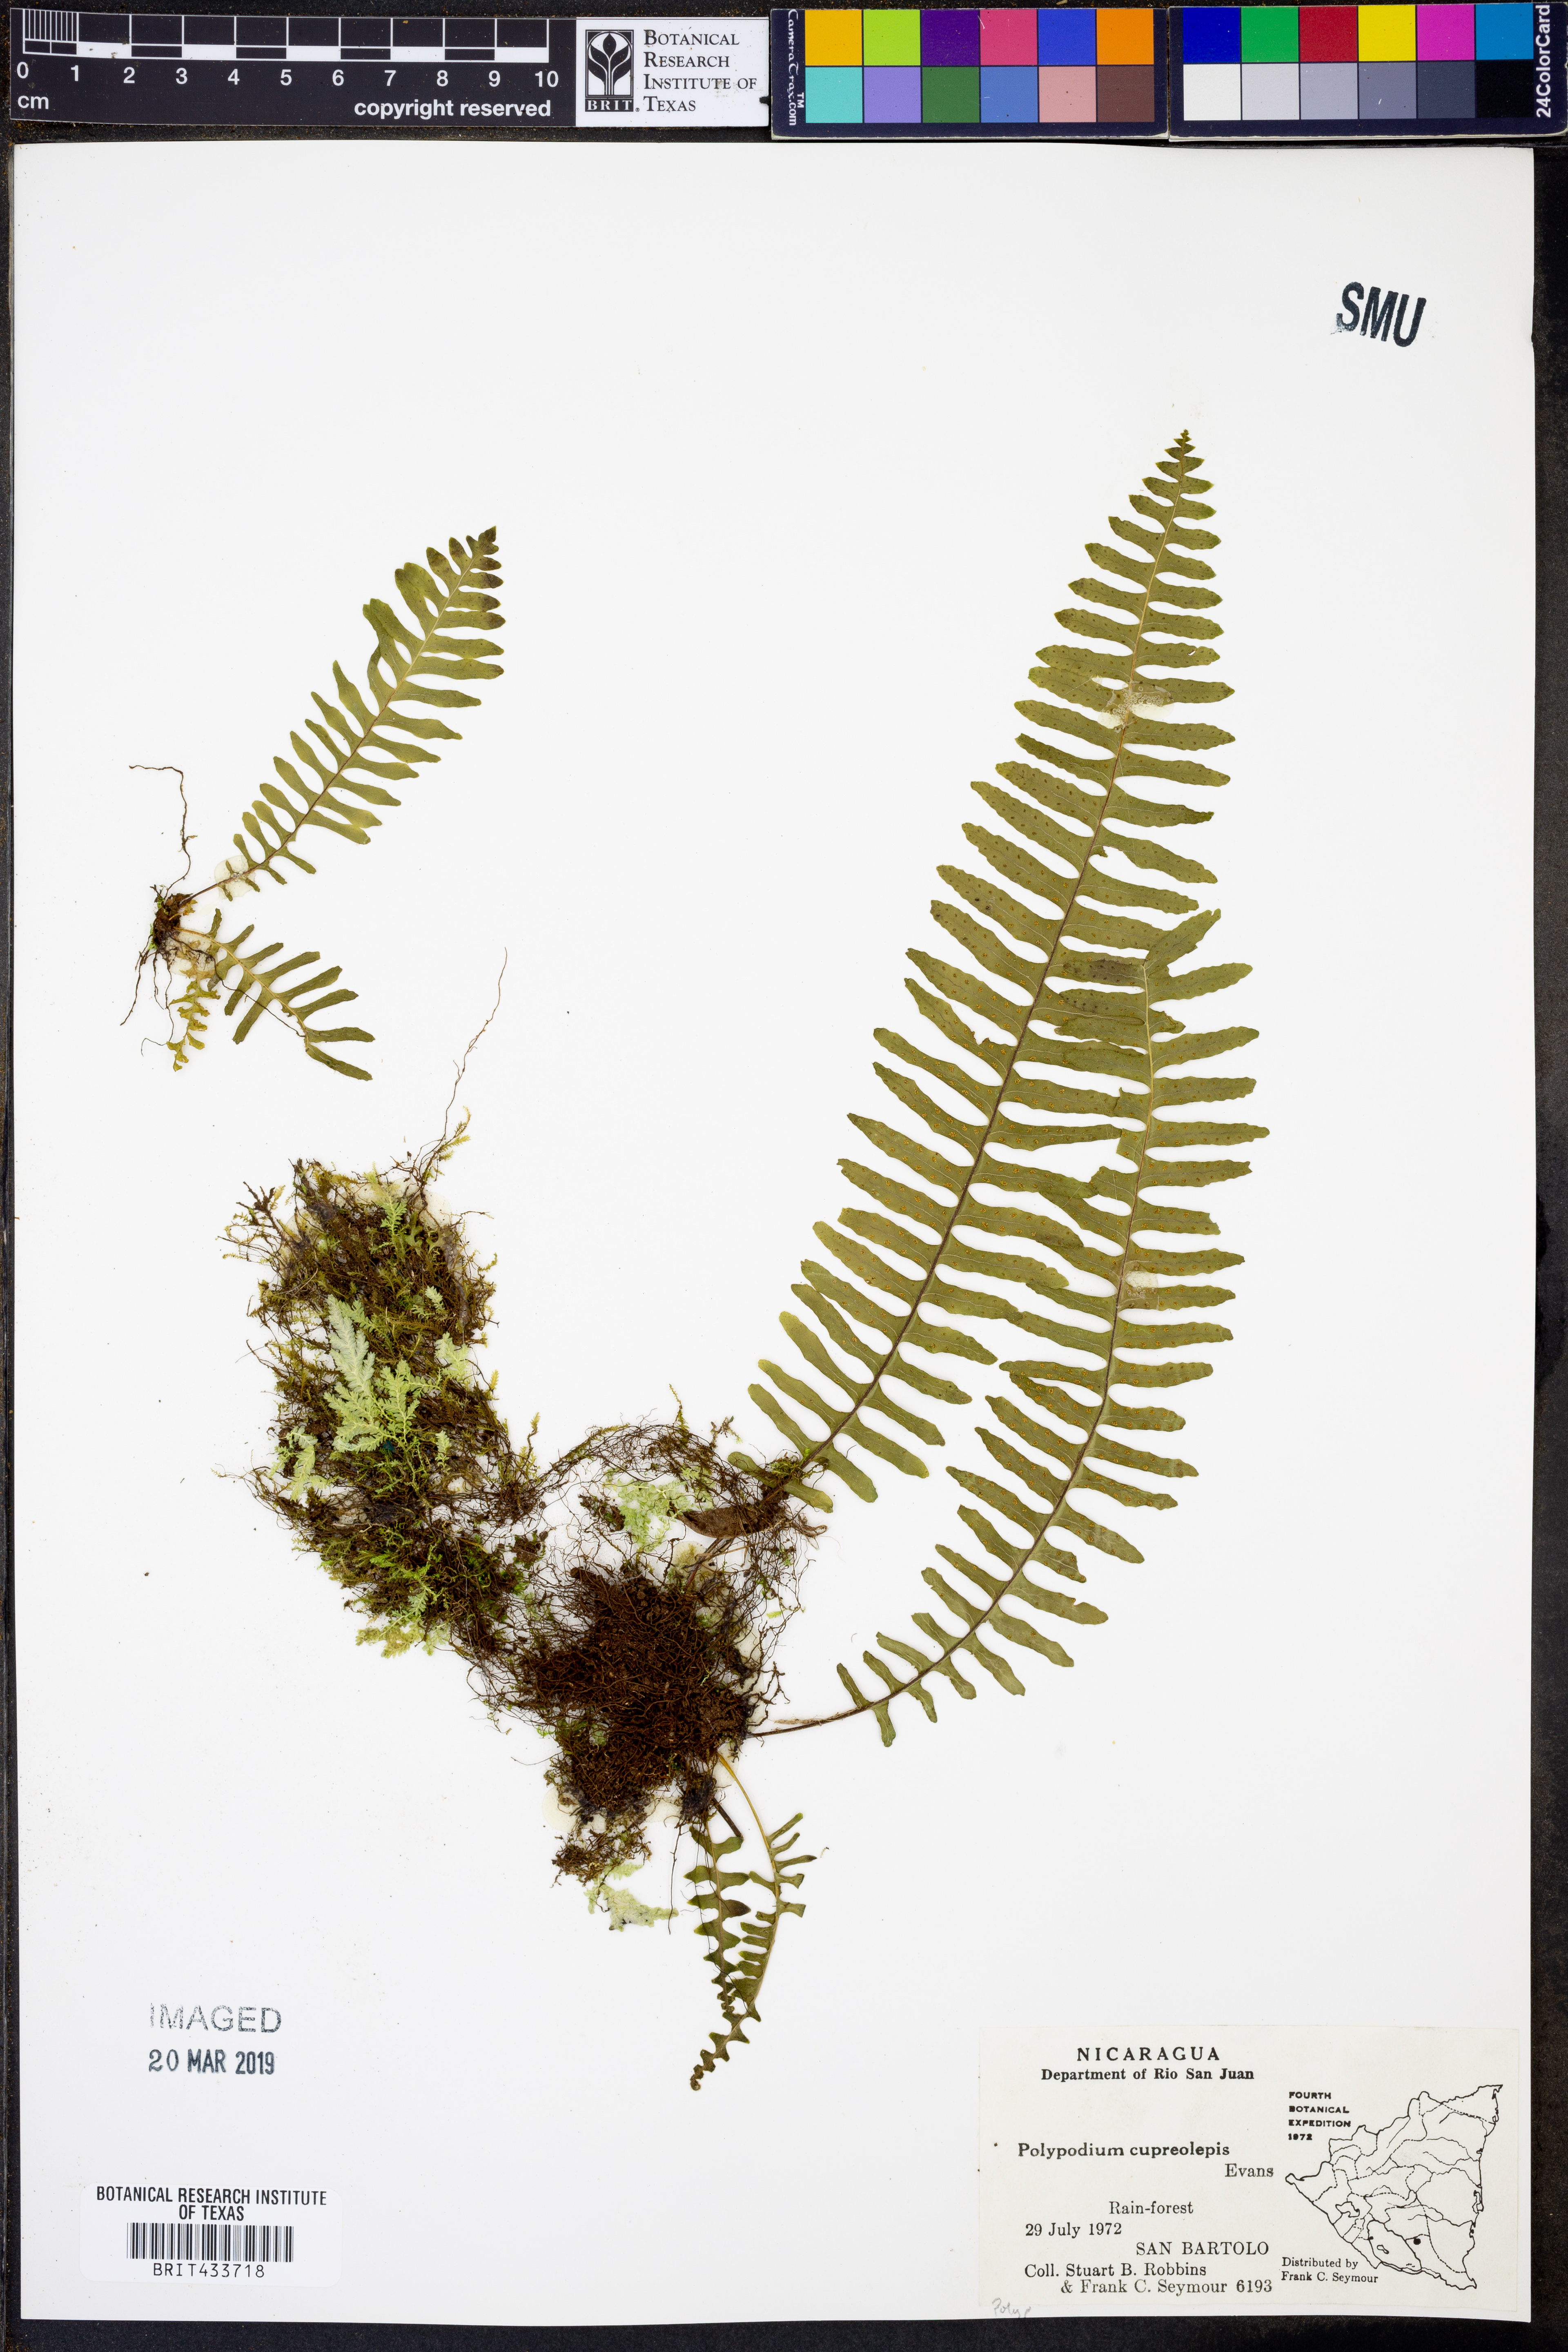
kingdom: Plantae
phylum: Tracheophyta
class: Polypodiopsida
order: Polypodiales
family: Polypodiaceae
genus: Pecluma
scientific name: Pecluma alfredii
